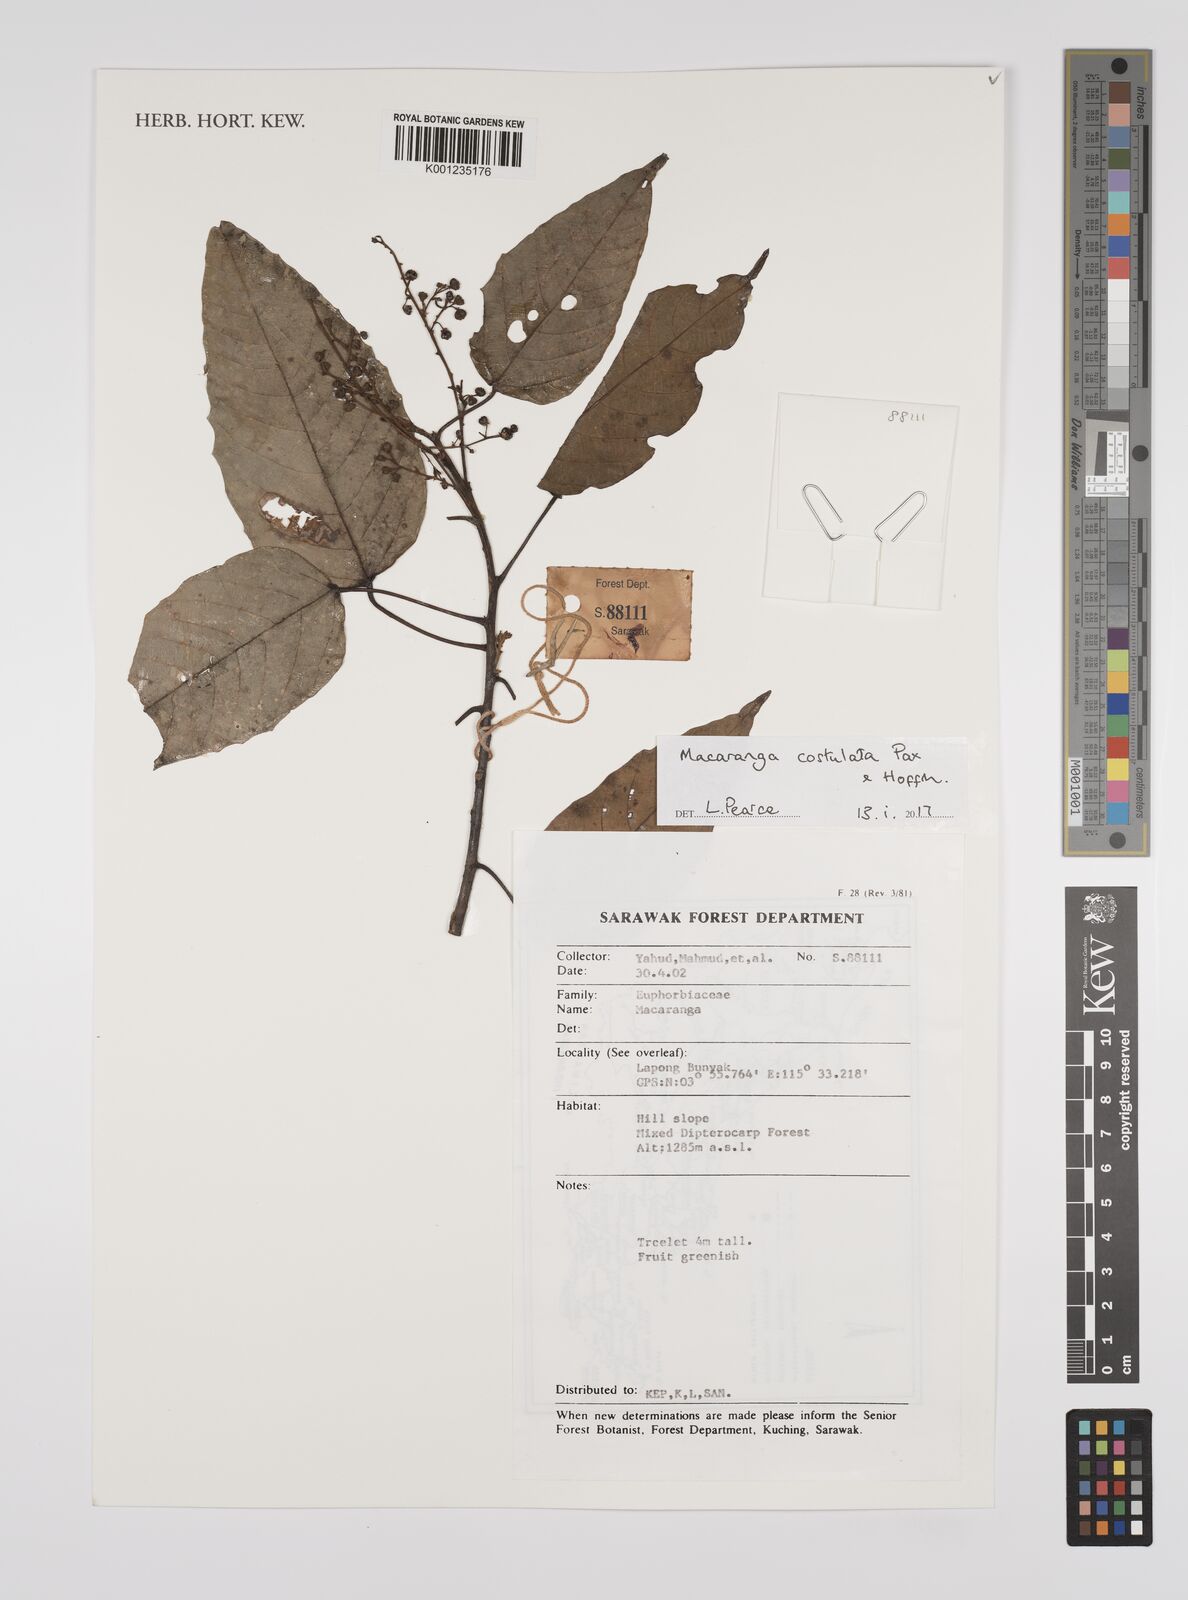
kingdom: Plantae
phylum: Tracheophyta
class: Magnoliopsida
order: Malpighiales
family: Euphorbiaceae
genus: Macaranga
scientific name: Macaranga costulata
